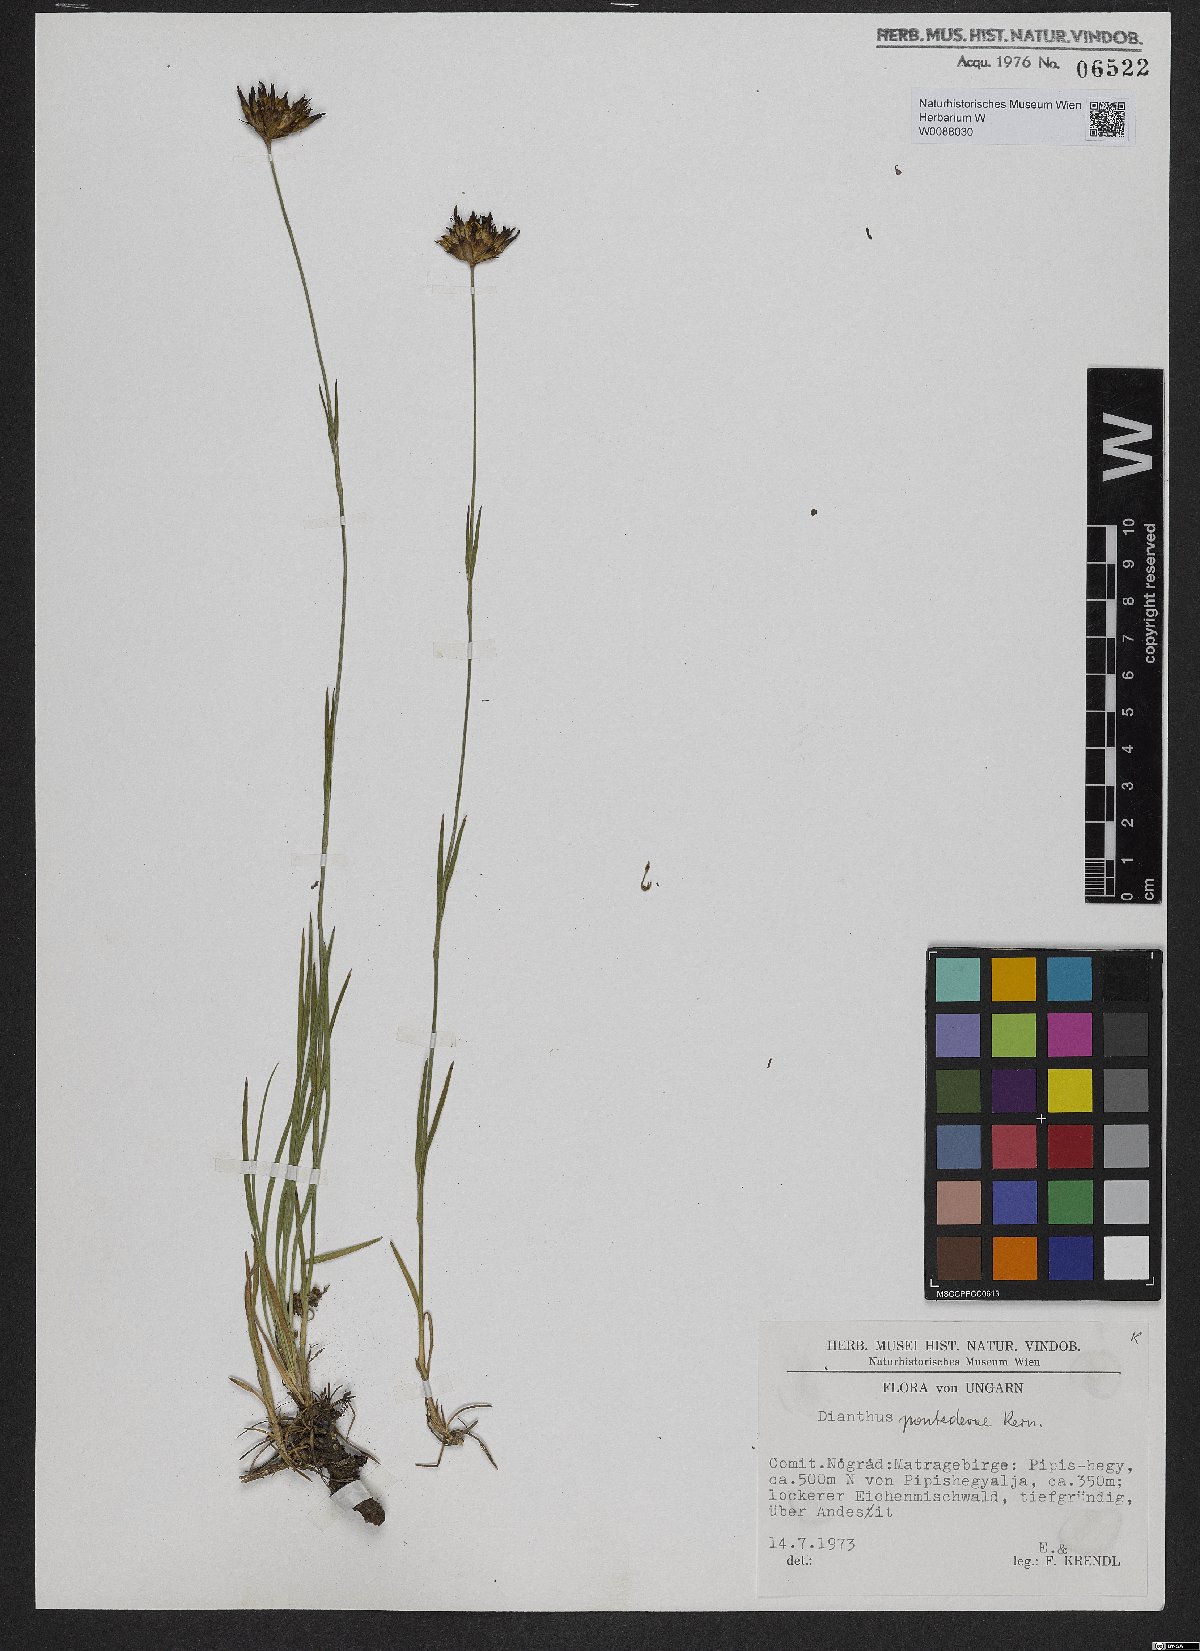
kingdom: Plantae
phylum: Tracheophyta
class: Magnoliopsida
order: Caryophyllales
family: Caryophyllaceae
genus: Dianthus
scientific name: Dianthus pontederae
